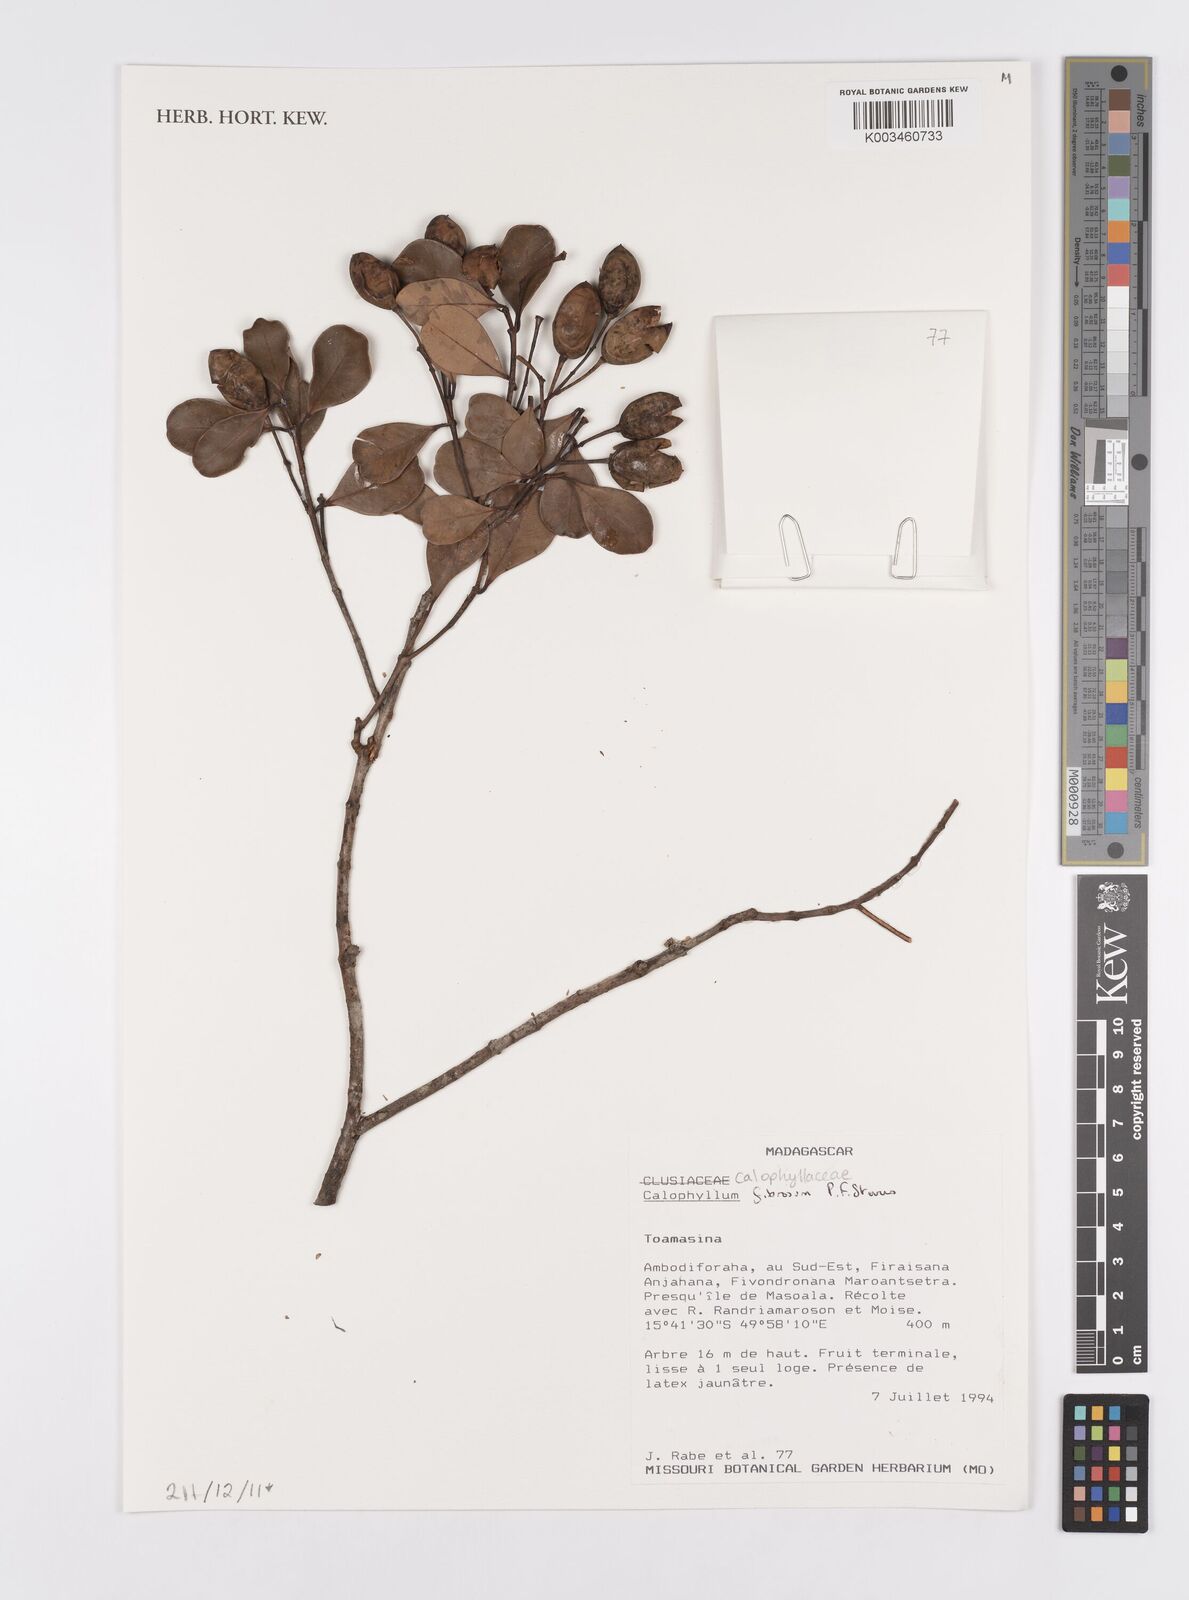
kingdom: Plantae
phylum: Tracheophyta
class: Magnoliopsida
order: Malpighiales
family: Calophyllaceae
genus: Calophyllum
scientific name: Calophyllum fibrosum
